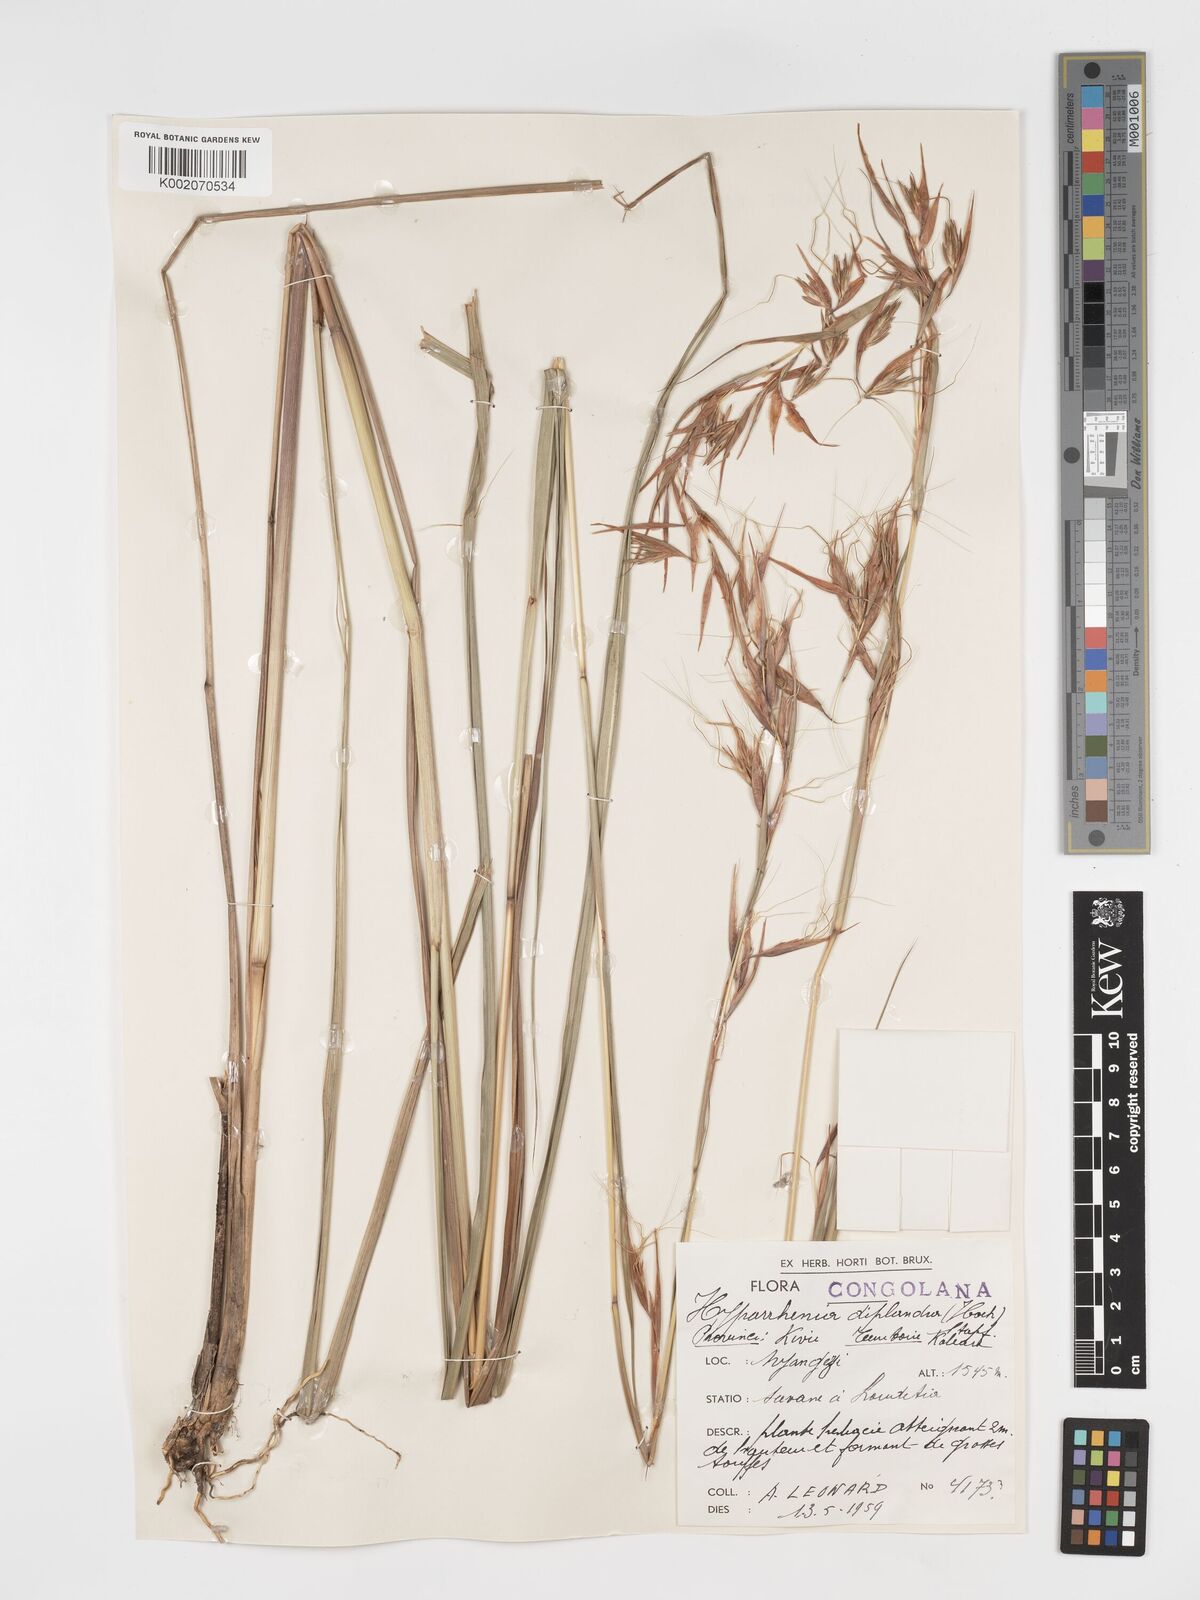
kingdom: Plantae
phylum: Tracheophyta
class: Liliopsida
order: Poales
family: Poaceae
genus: Hyparrhenia
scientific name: Hyparrhenia diplandra
